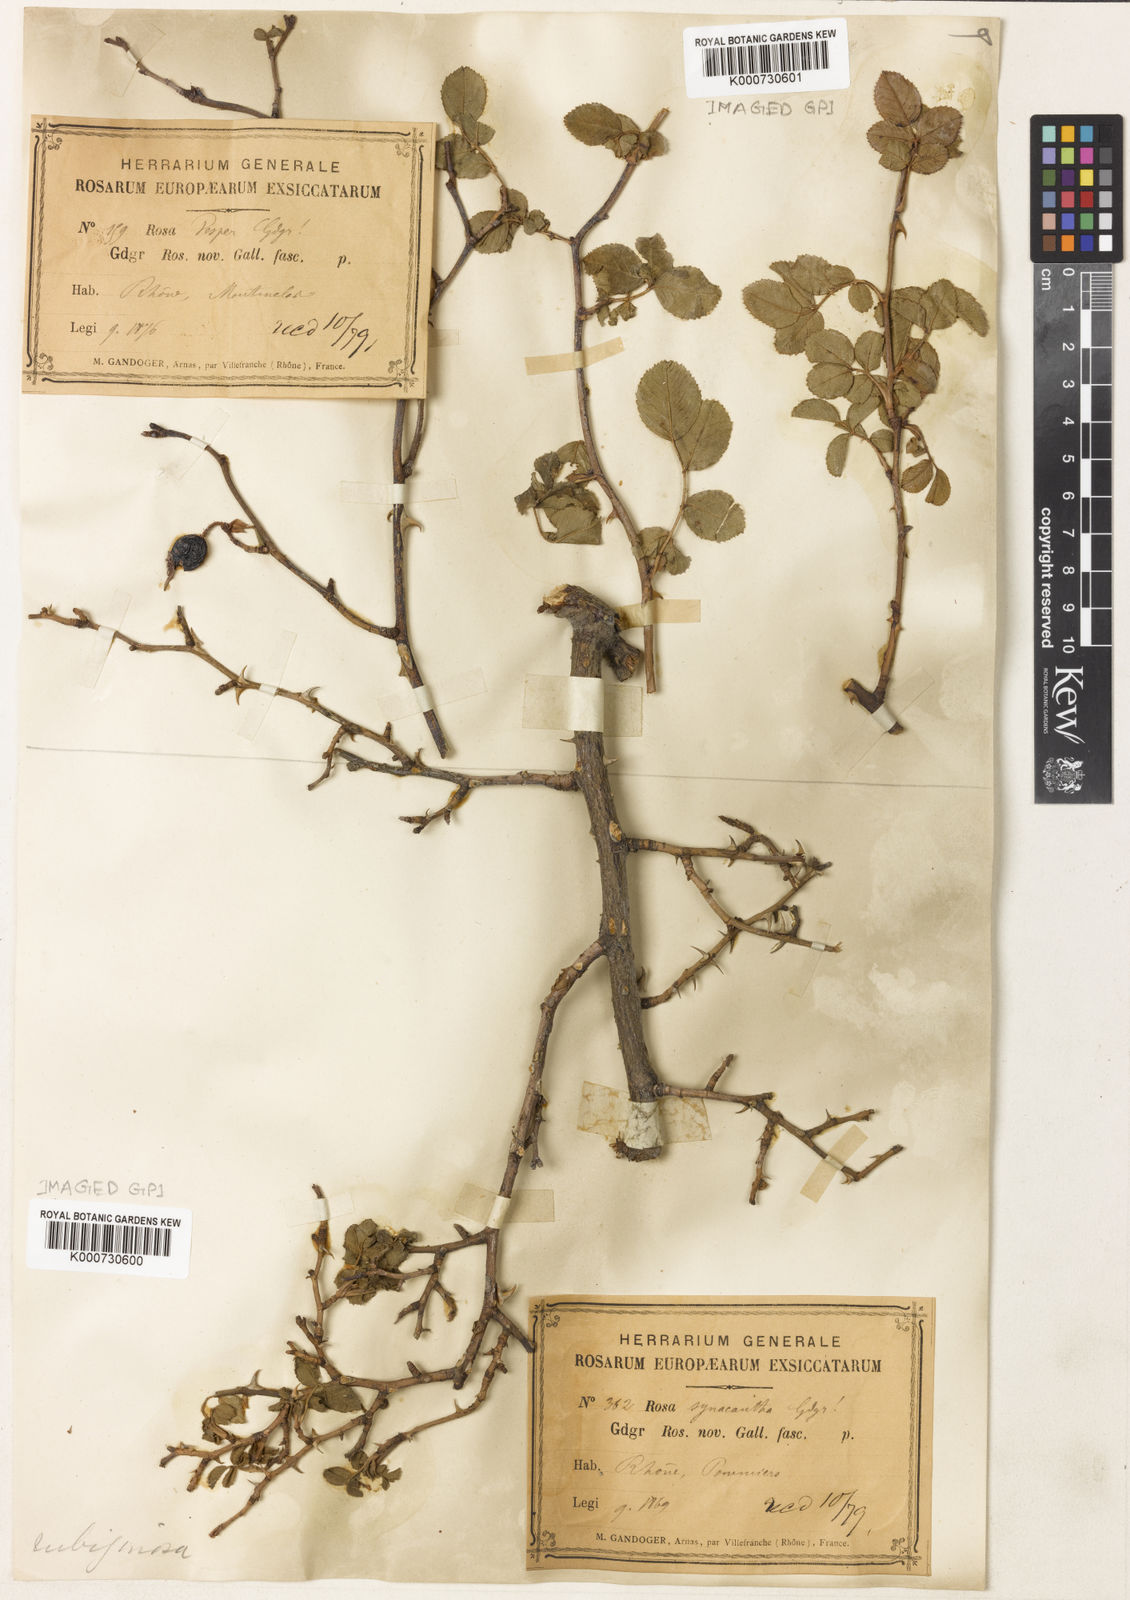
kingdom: Plantae
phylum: Tracheophyta
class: Magnoliopsida
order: Rosales
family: Rosaceae
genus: Rosa
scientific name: Rosa rubiginosa
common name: Sweet-briar
